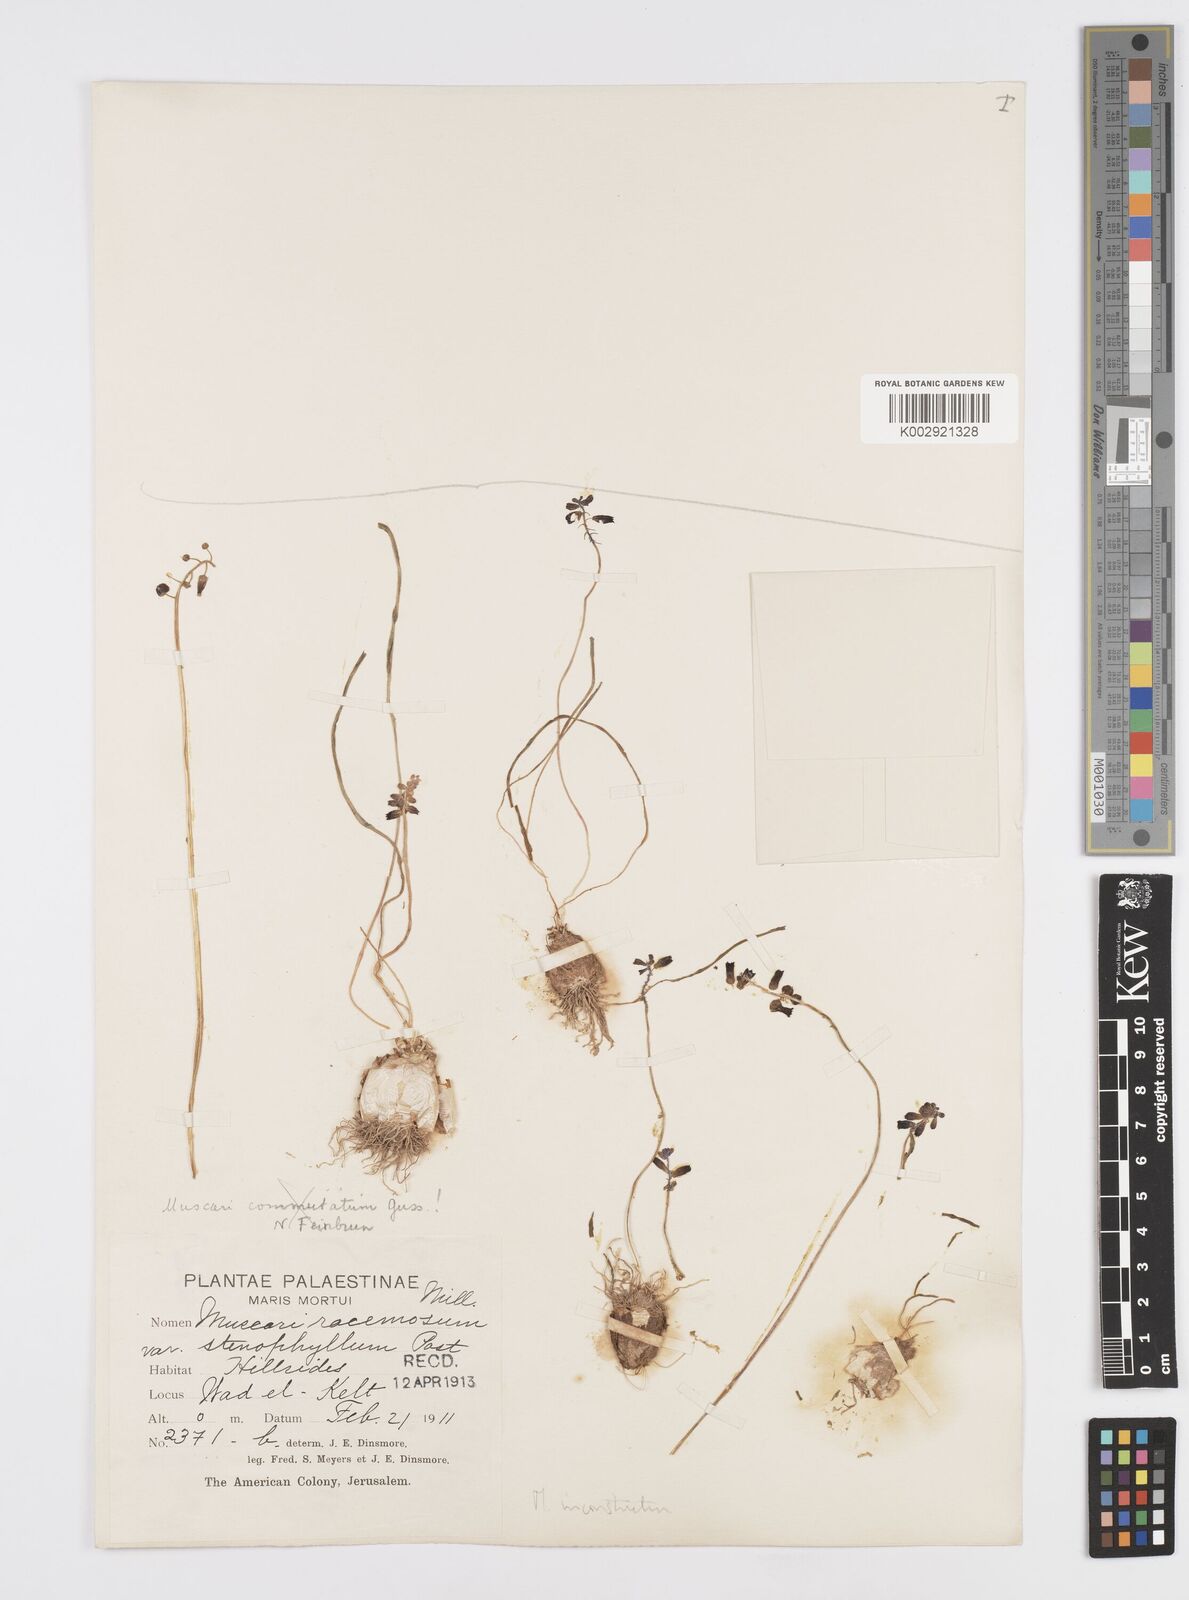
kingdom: Plantae
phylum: Tracheophyta
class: Liliopsida
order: Asparagales
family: Asparagaceae
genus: Muscari
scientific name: Muscari inconstrictum
